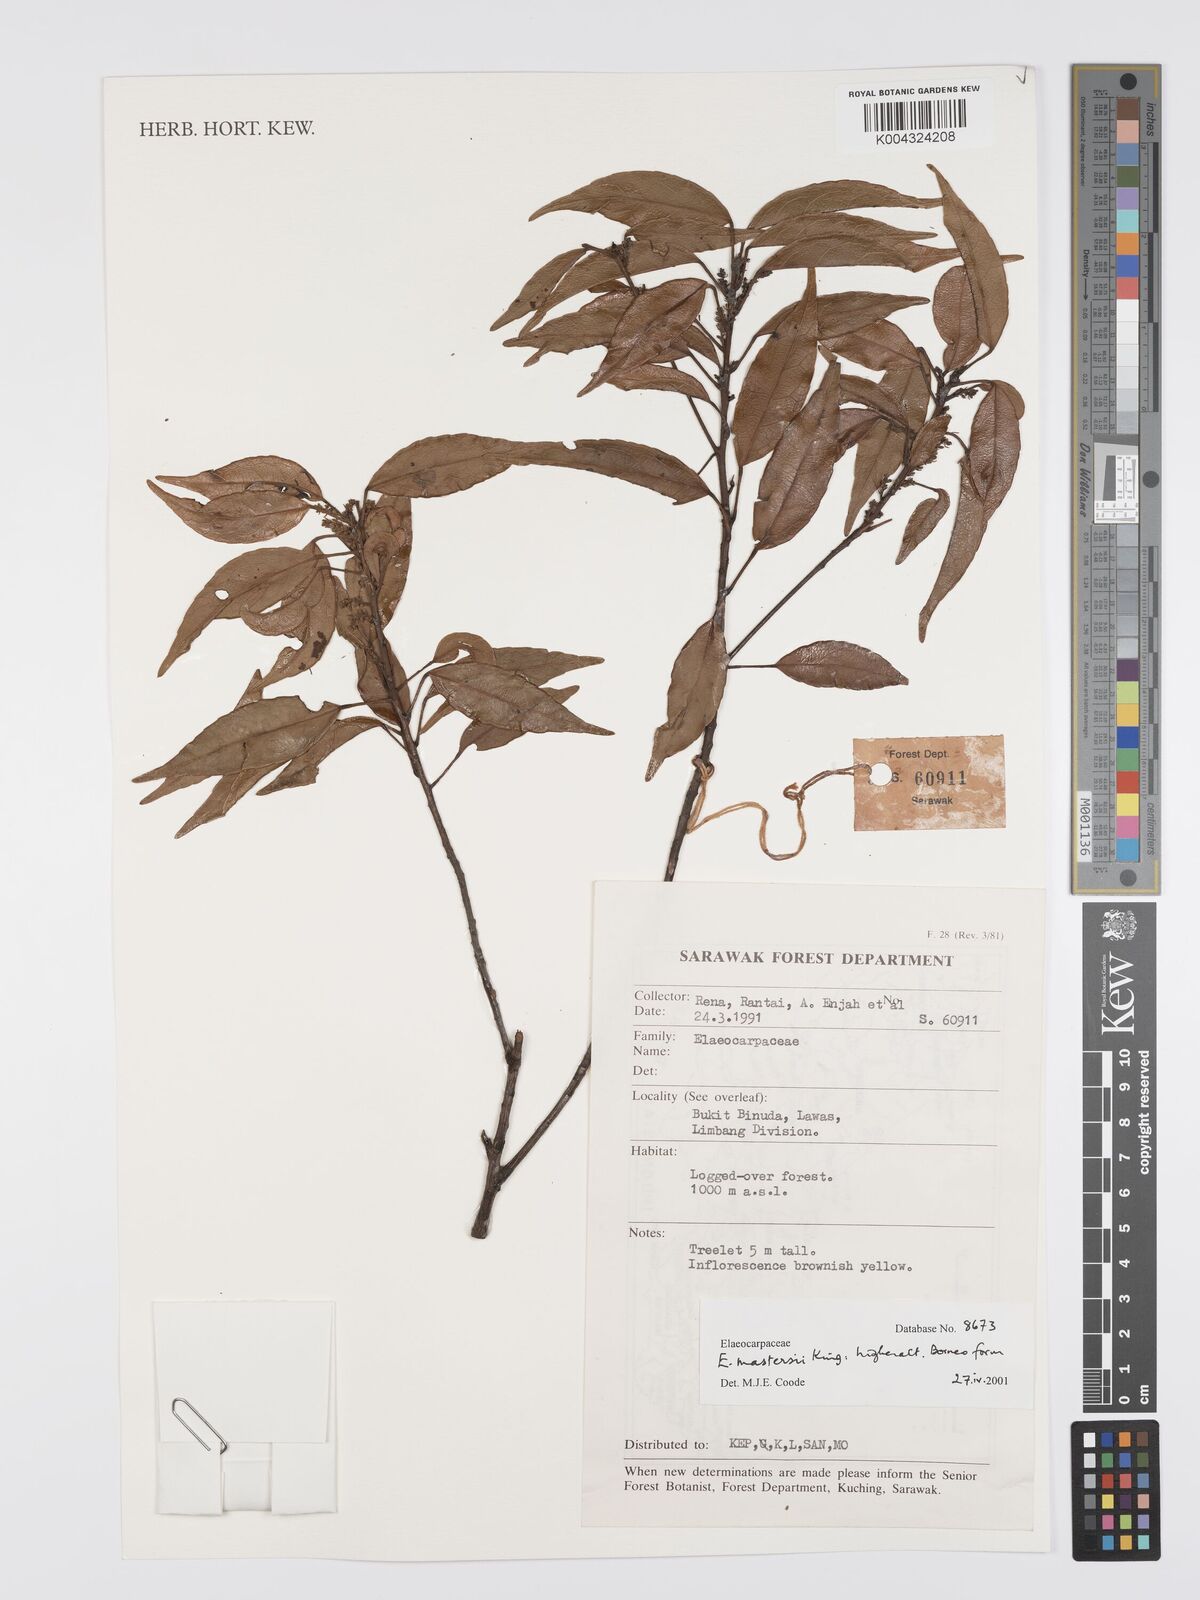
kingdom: Plantae
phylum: Tracheophyta
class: Magnoliopsida
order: Oxalidales
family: Elaeocarpaceae
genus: Elaeocarpus
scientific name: Elaeocarpus mastersii
